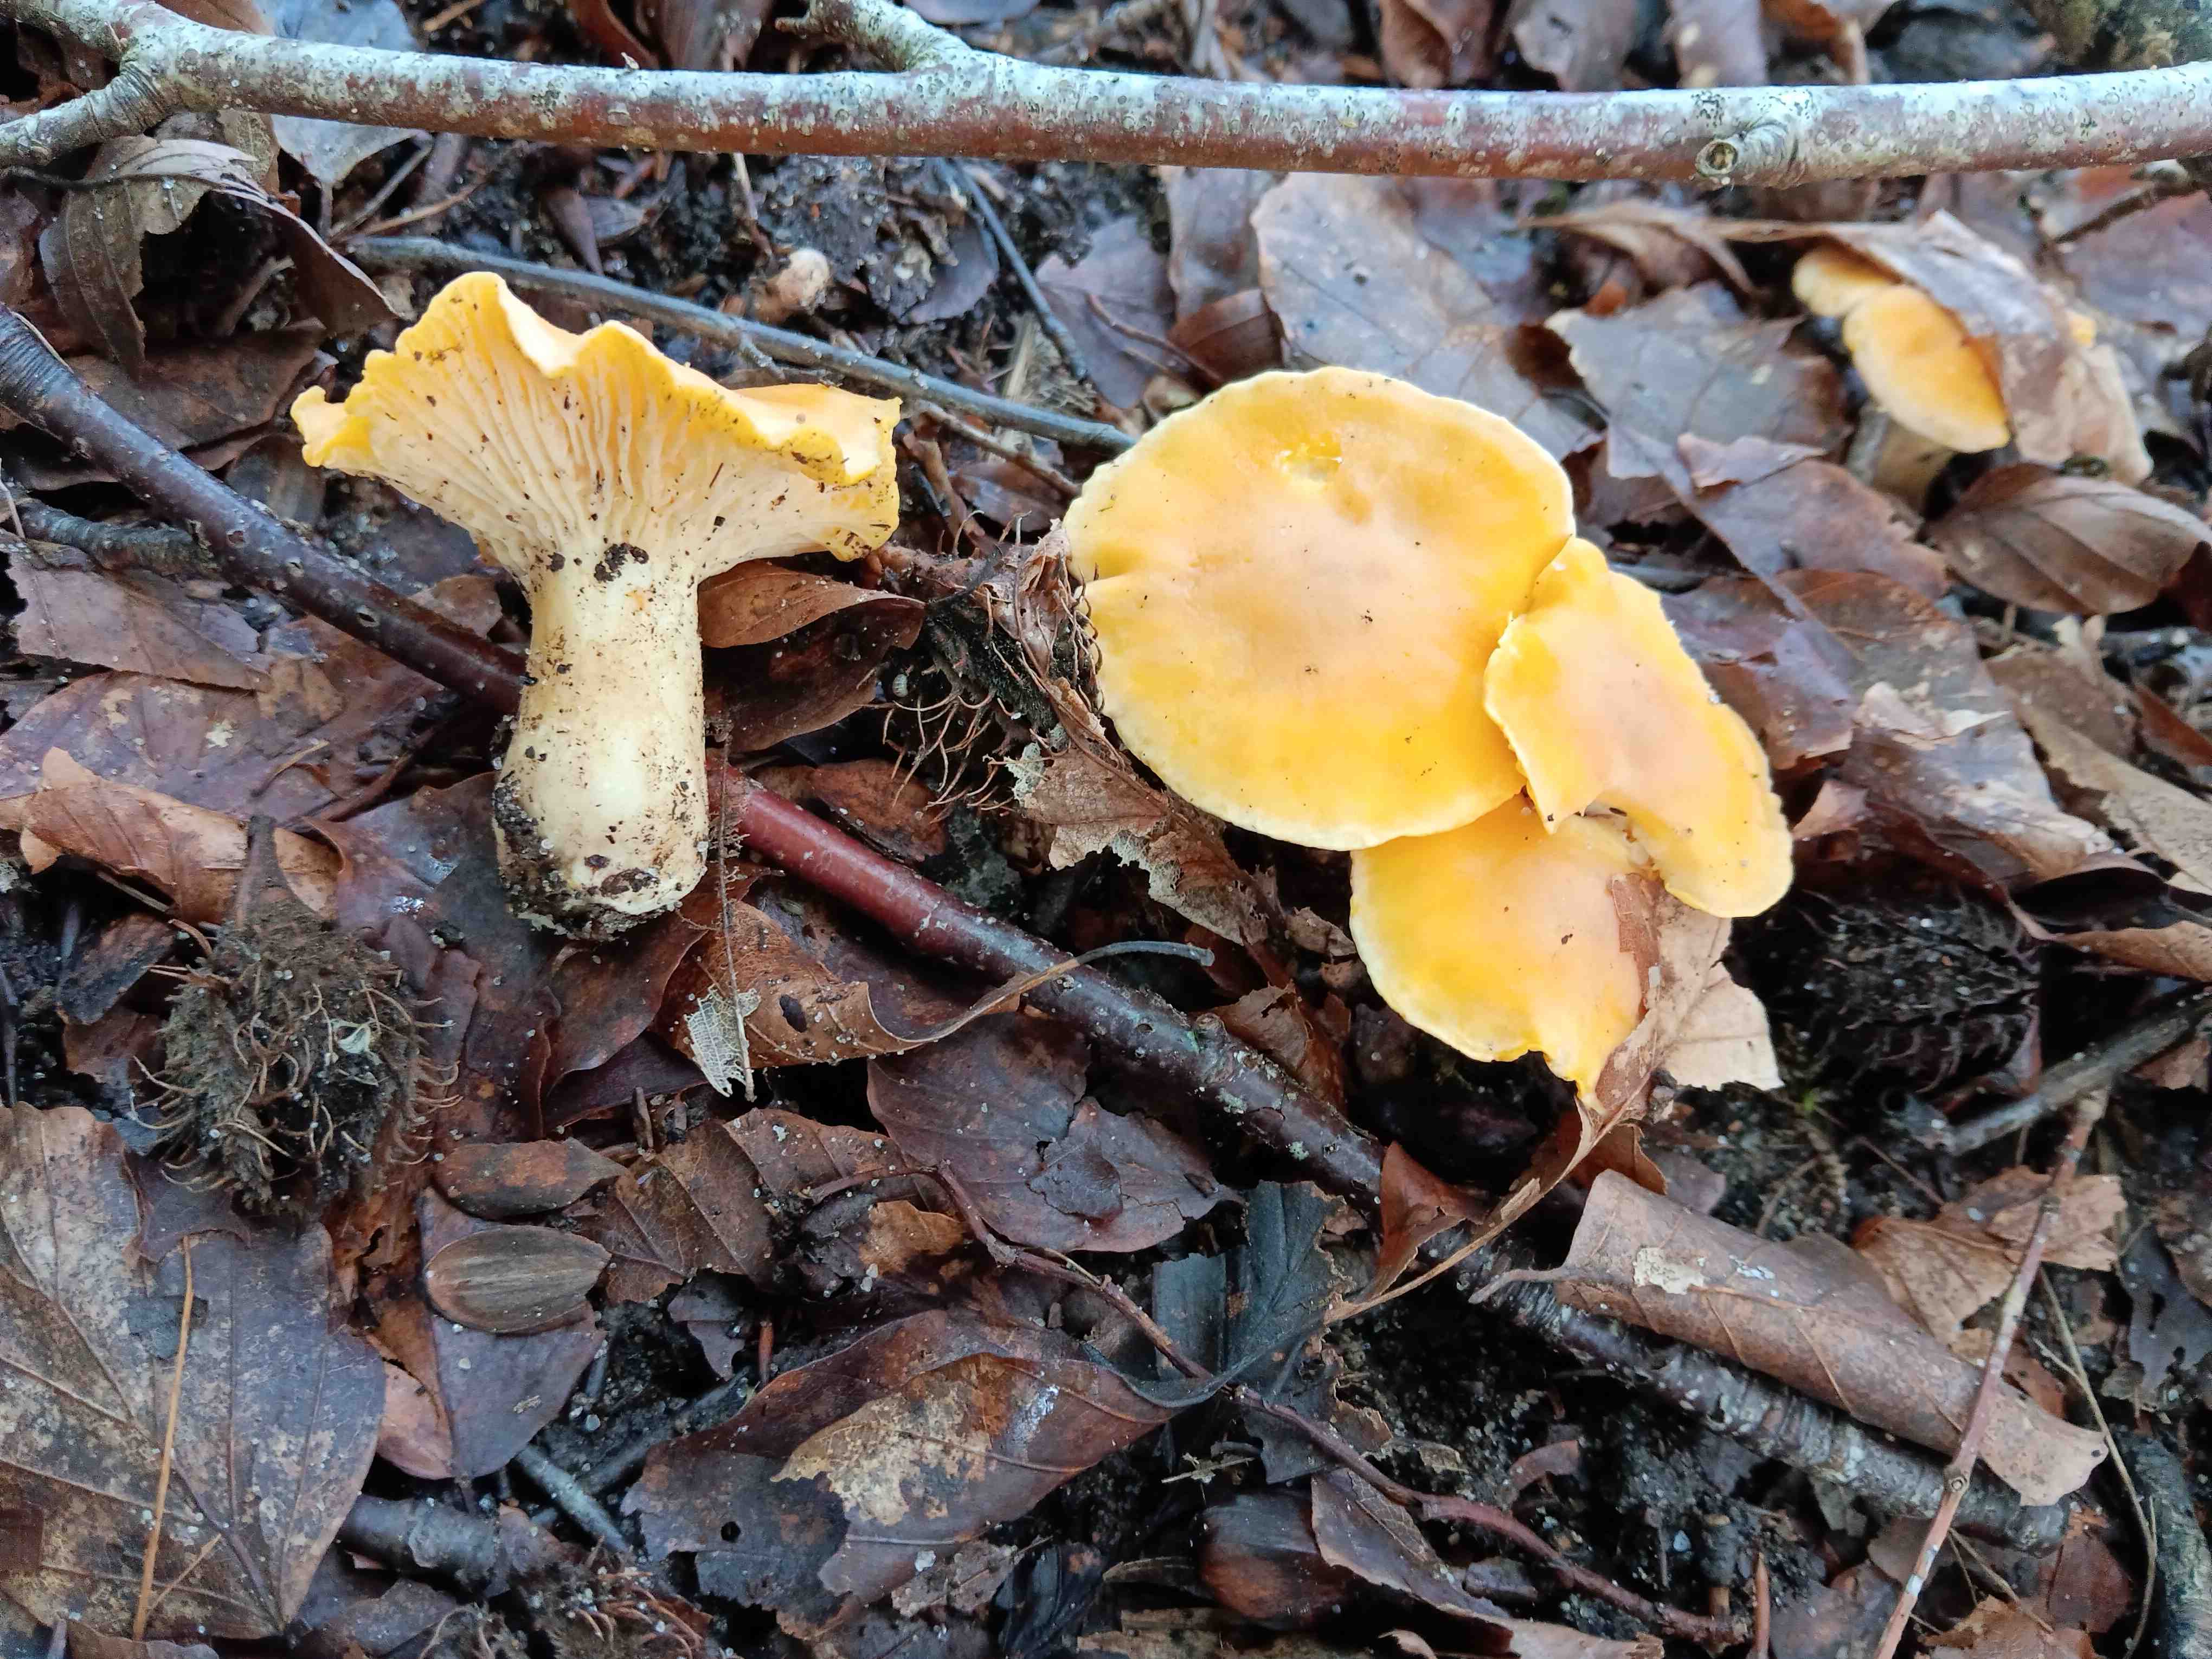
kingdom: Fungi
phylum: Basidiomycota
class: Agaricomycetes
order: Cantharellales
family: Hydnaceae
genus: Cantharellus
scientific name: Cantharellus cibarius
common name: almindelig kantarel
